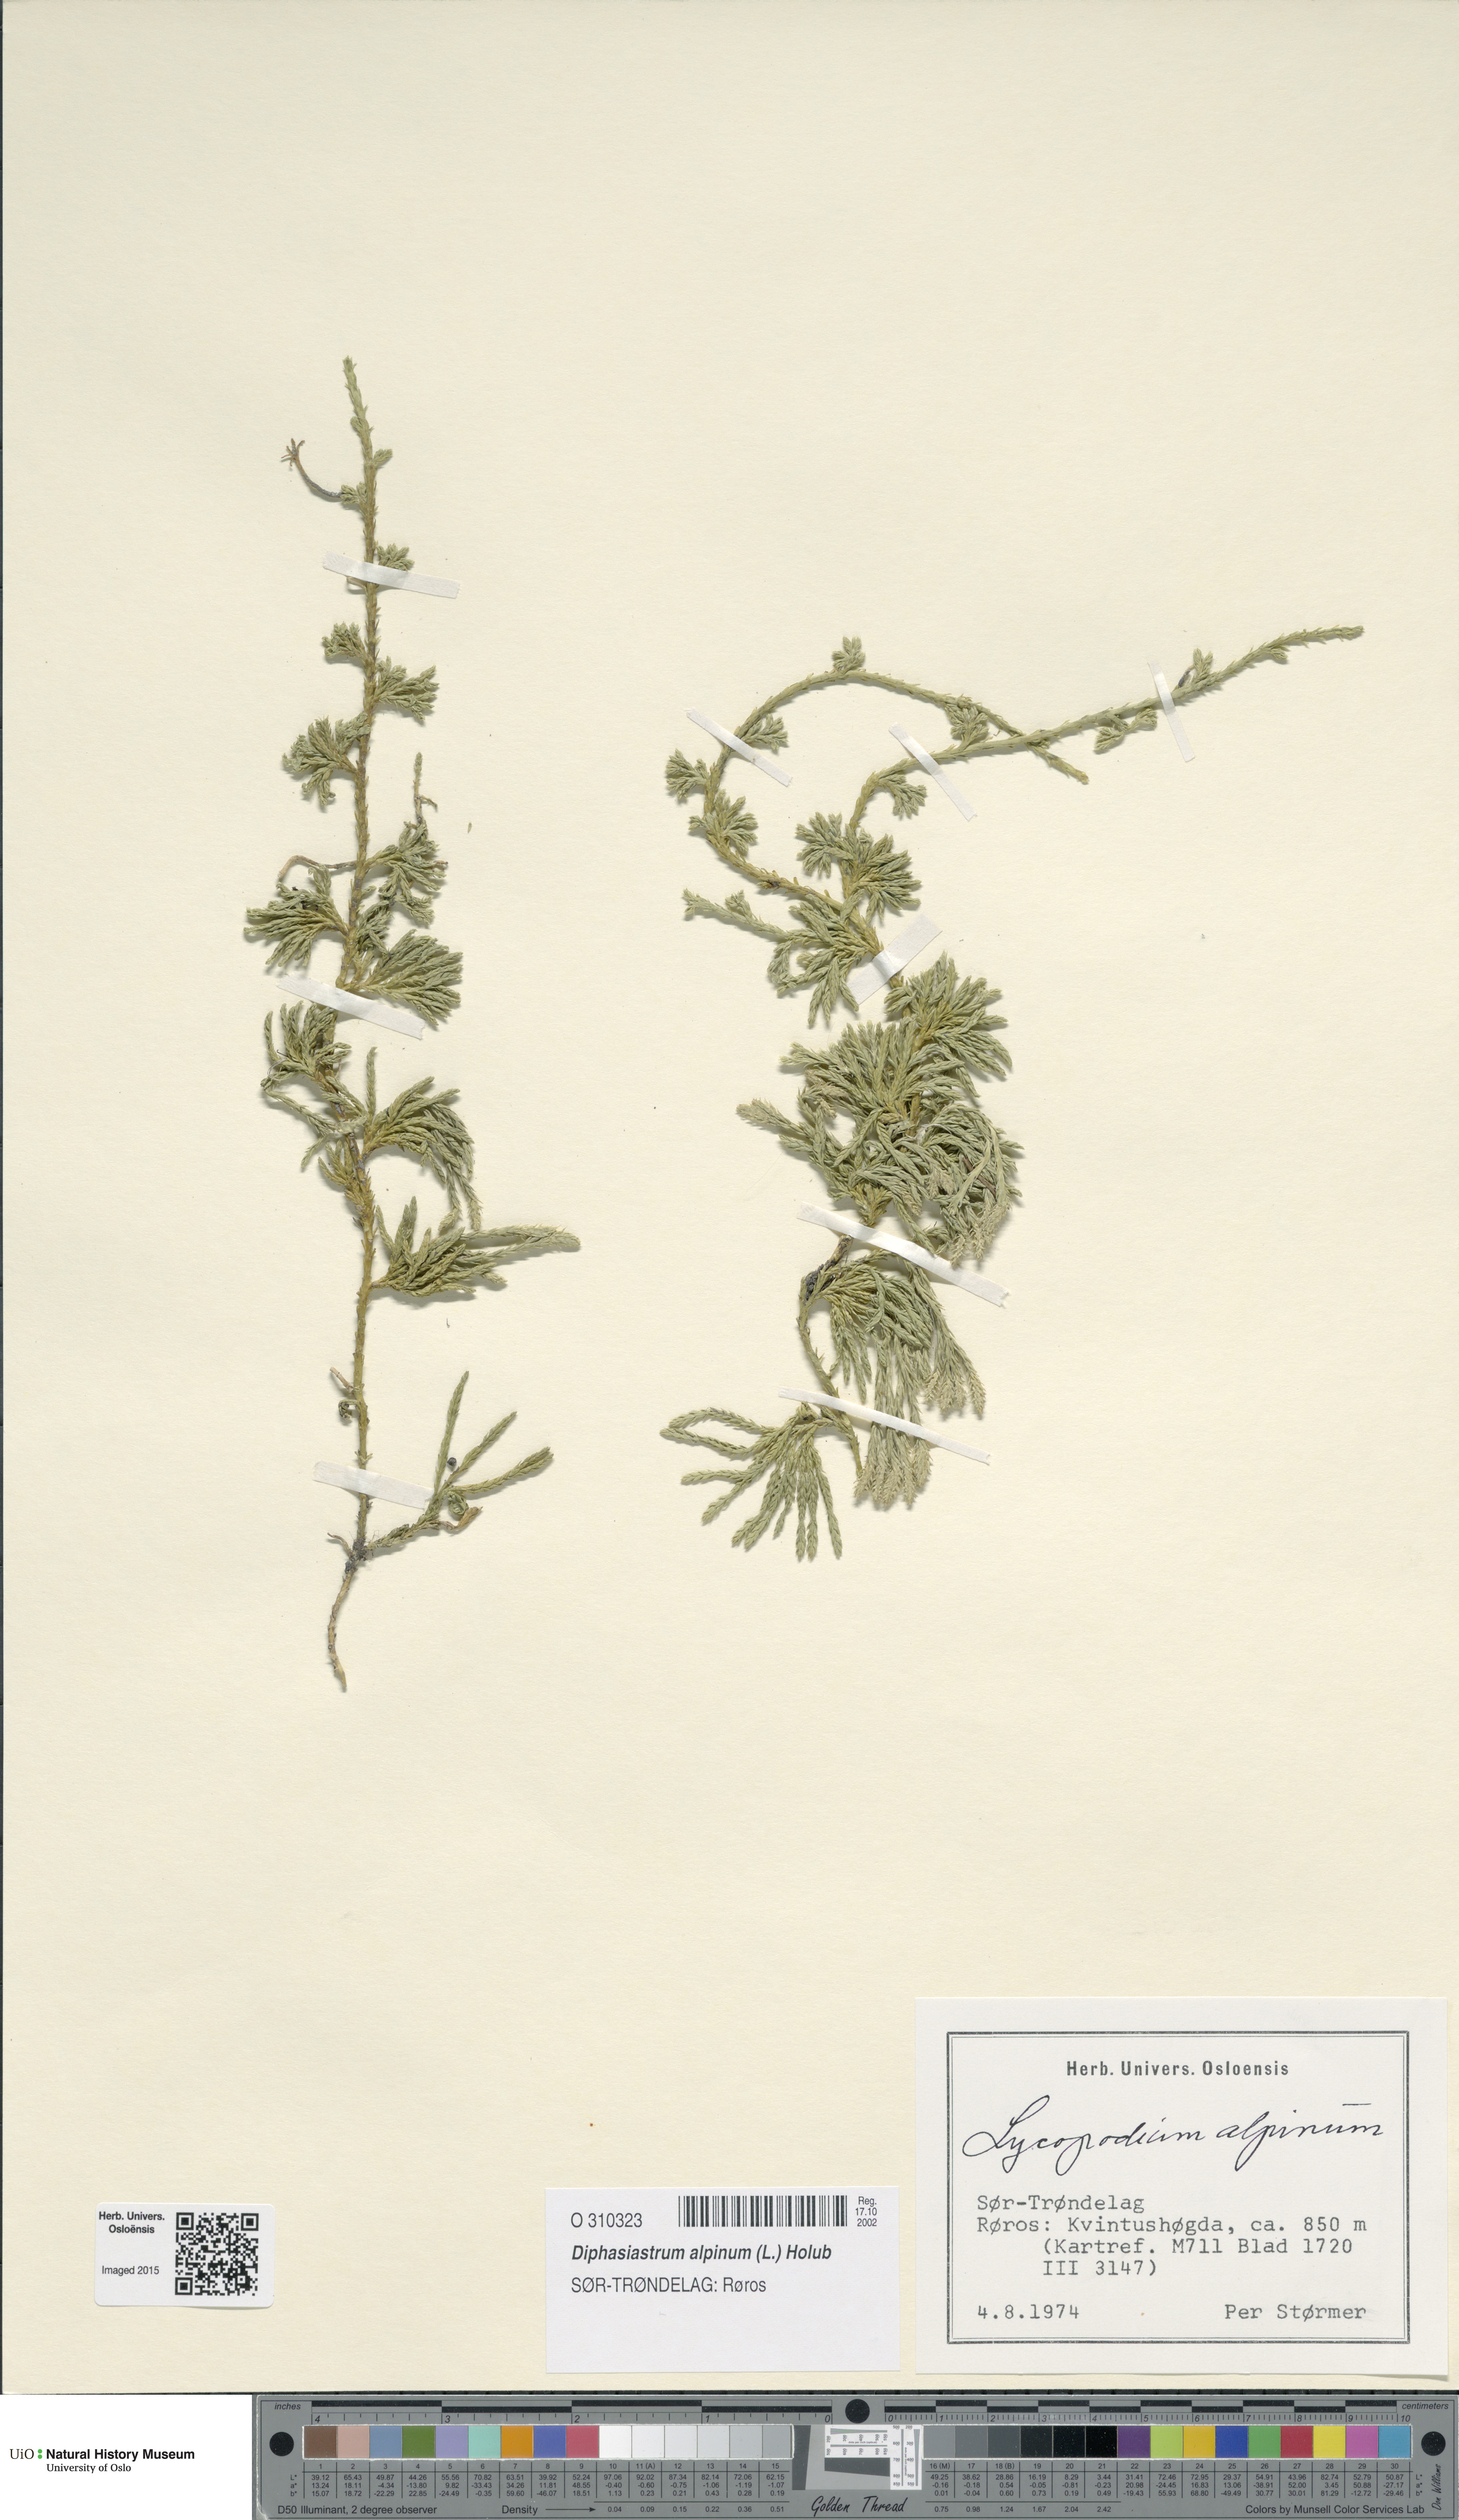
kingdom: Plantae
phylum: Tracheophyta
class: Lycopodiopsida
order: Lycopodiales
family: Lycopodiaceae
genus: Diphasiastrum
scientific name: Diphasiastrum alpinum
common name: Alpine clubmoss
